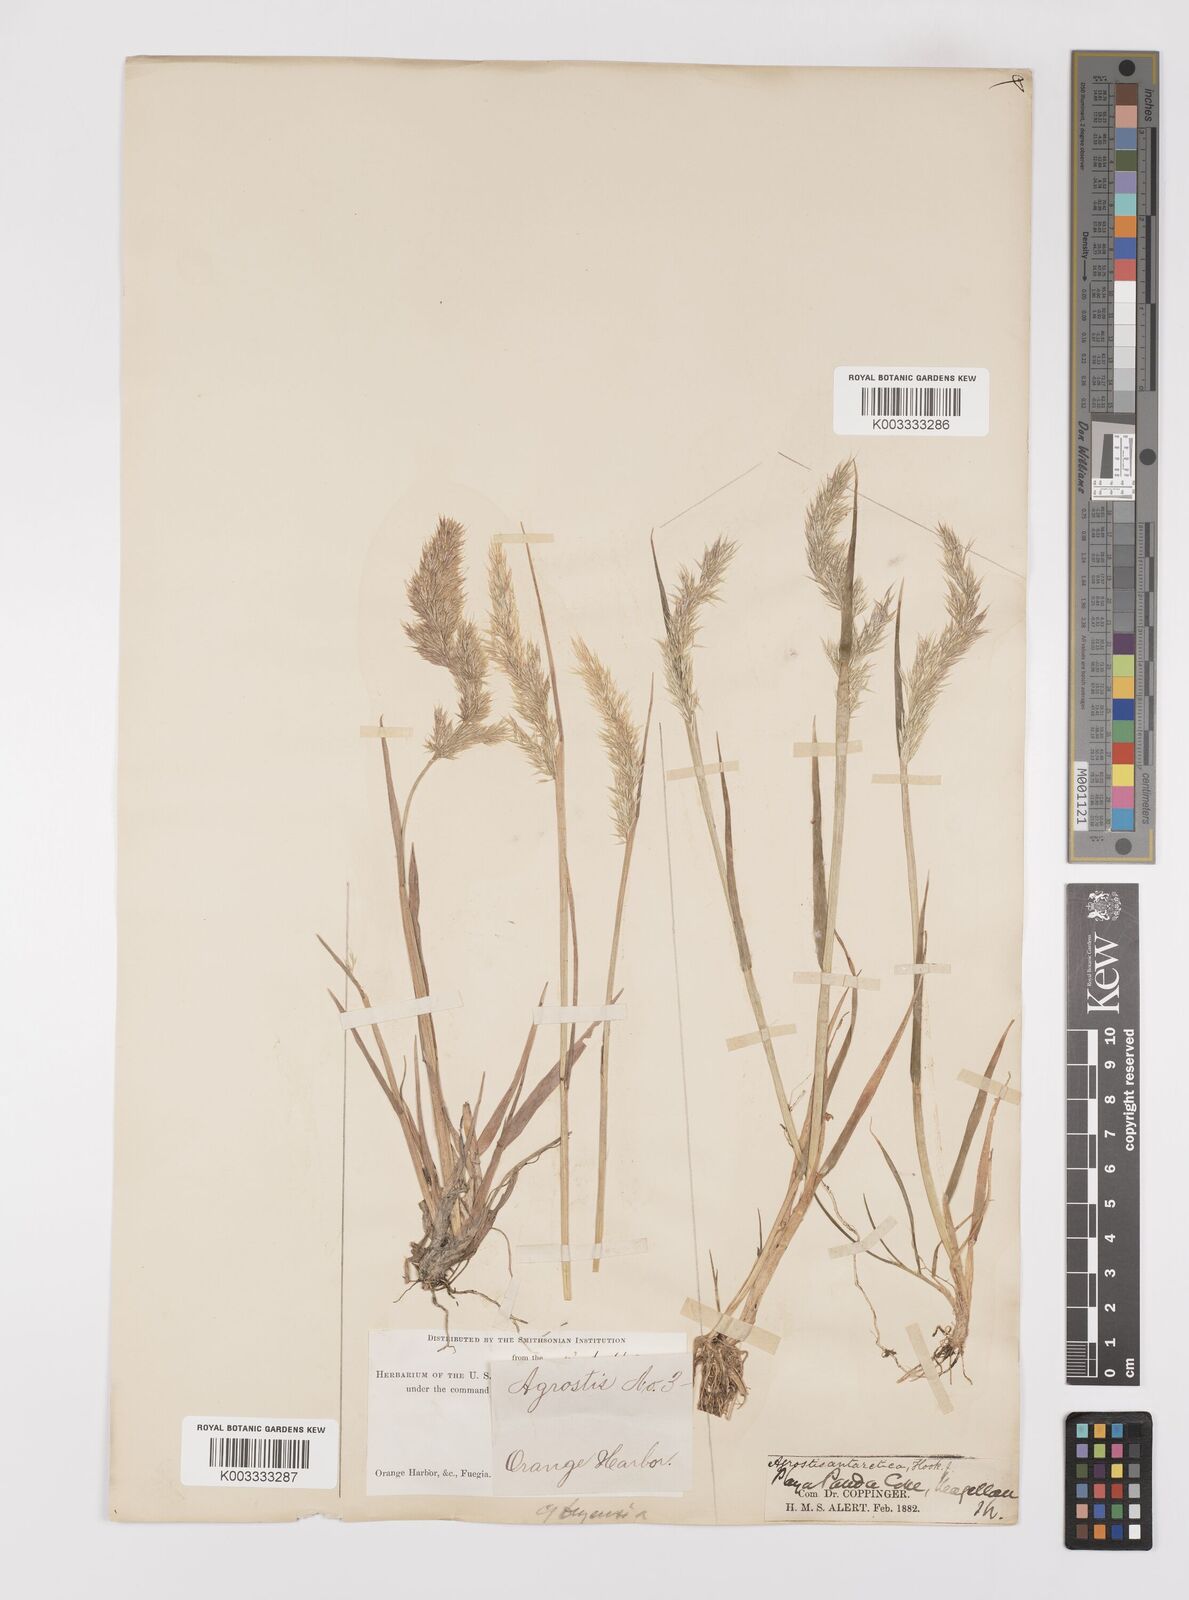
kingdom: Plantae
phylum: Tracheophyta
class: Liliopsida
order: Poales
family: Poaceae
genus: Polypogon
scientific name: Polypogon magellanicus
